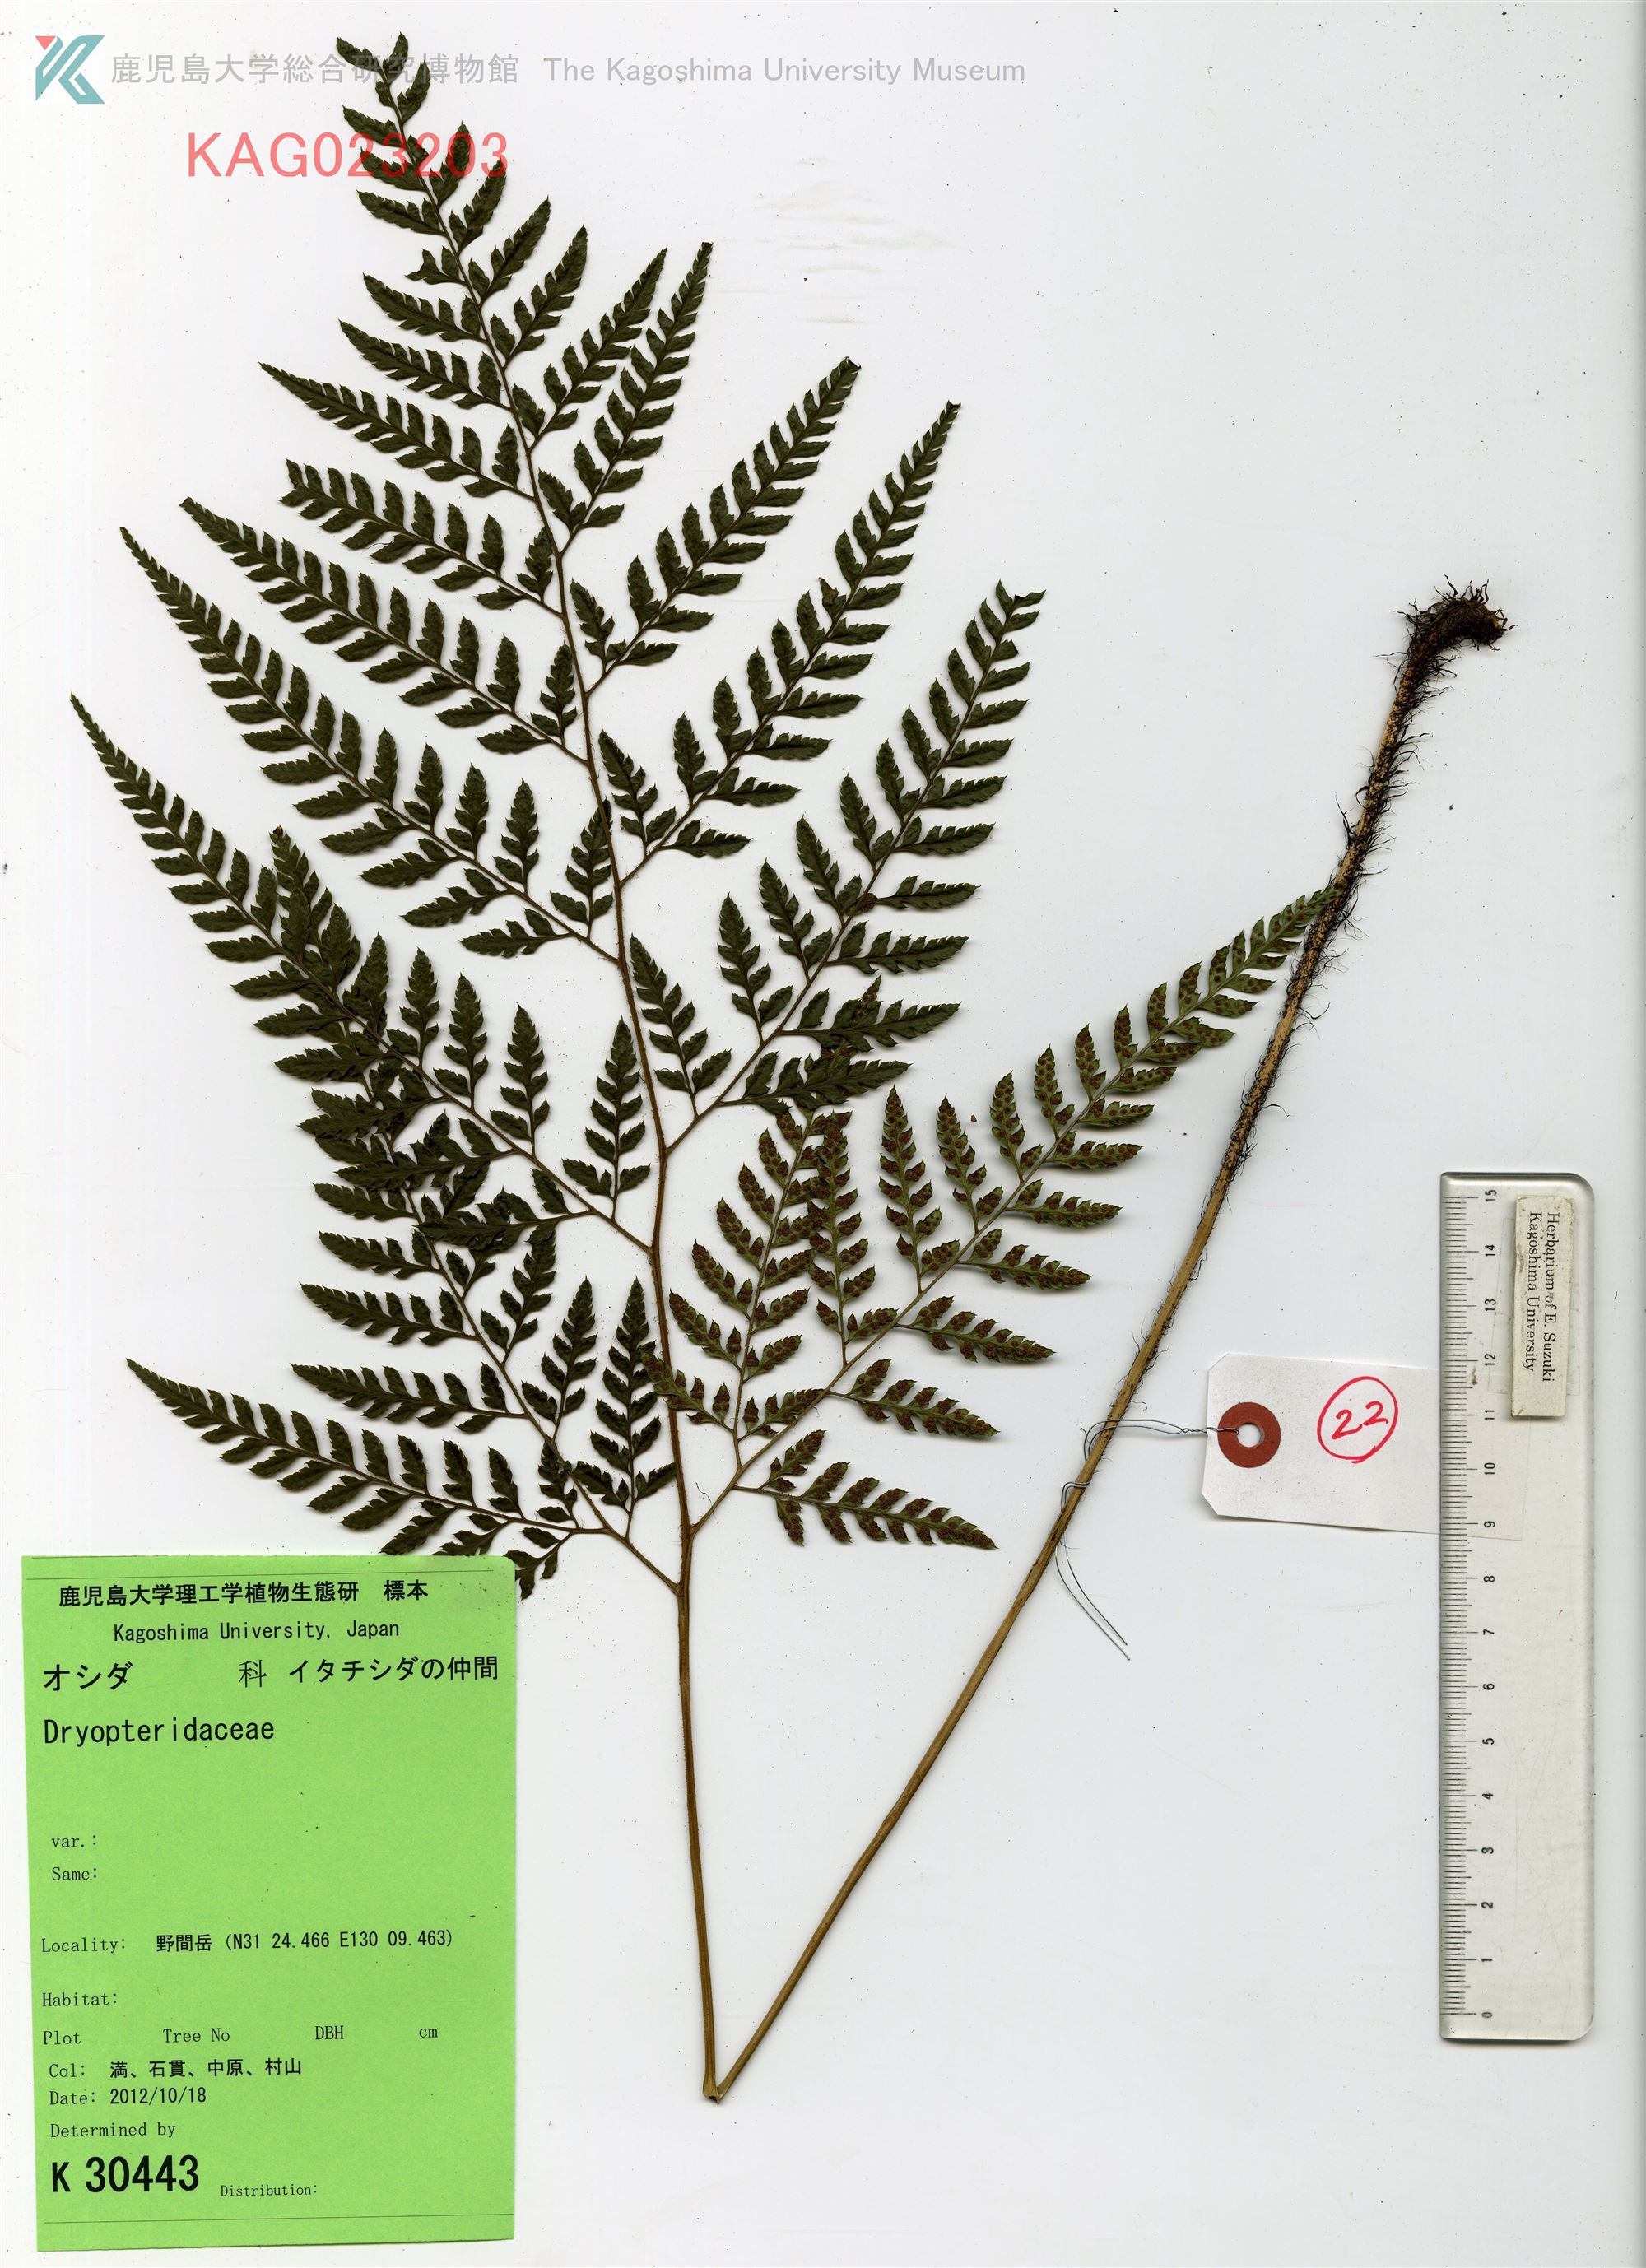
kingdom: Plantae
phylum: Tracheophyta
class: Polypodiopsida
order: Polypodiales
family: Dryopteridaceae
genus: Arachniodes
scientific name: Arachniodes cornu-cervi
